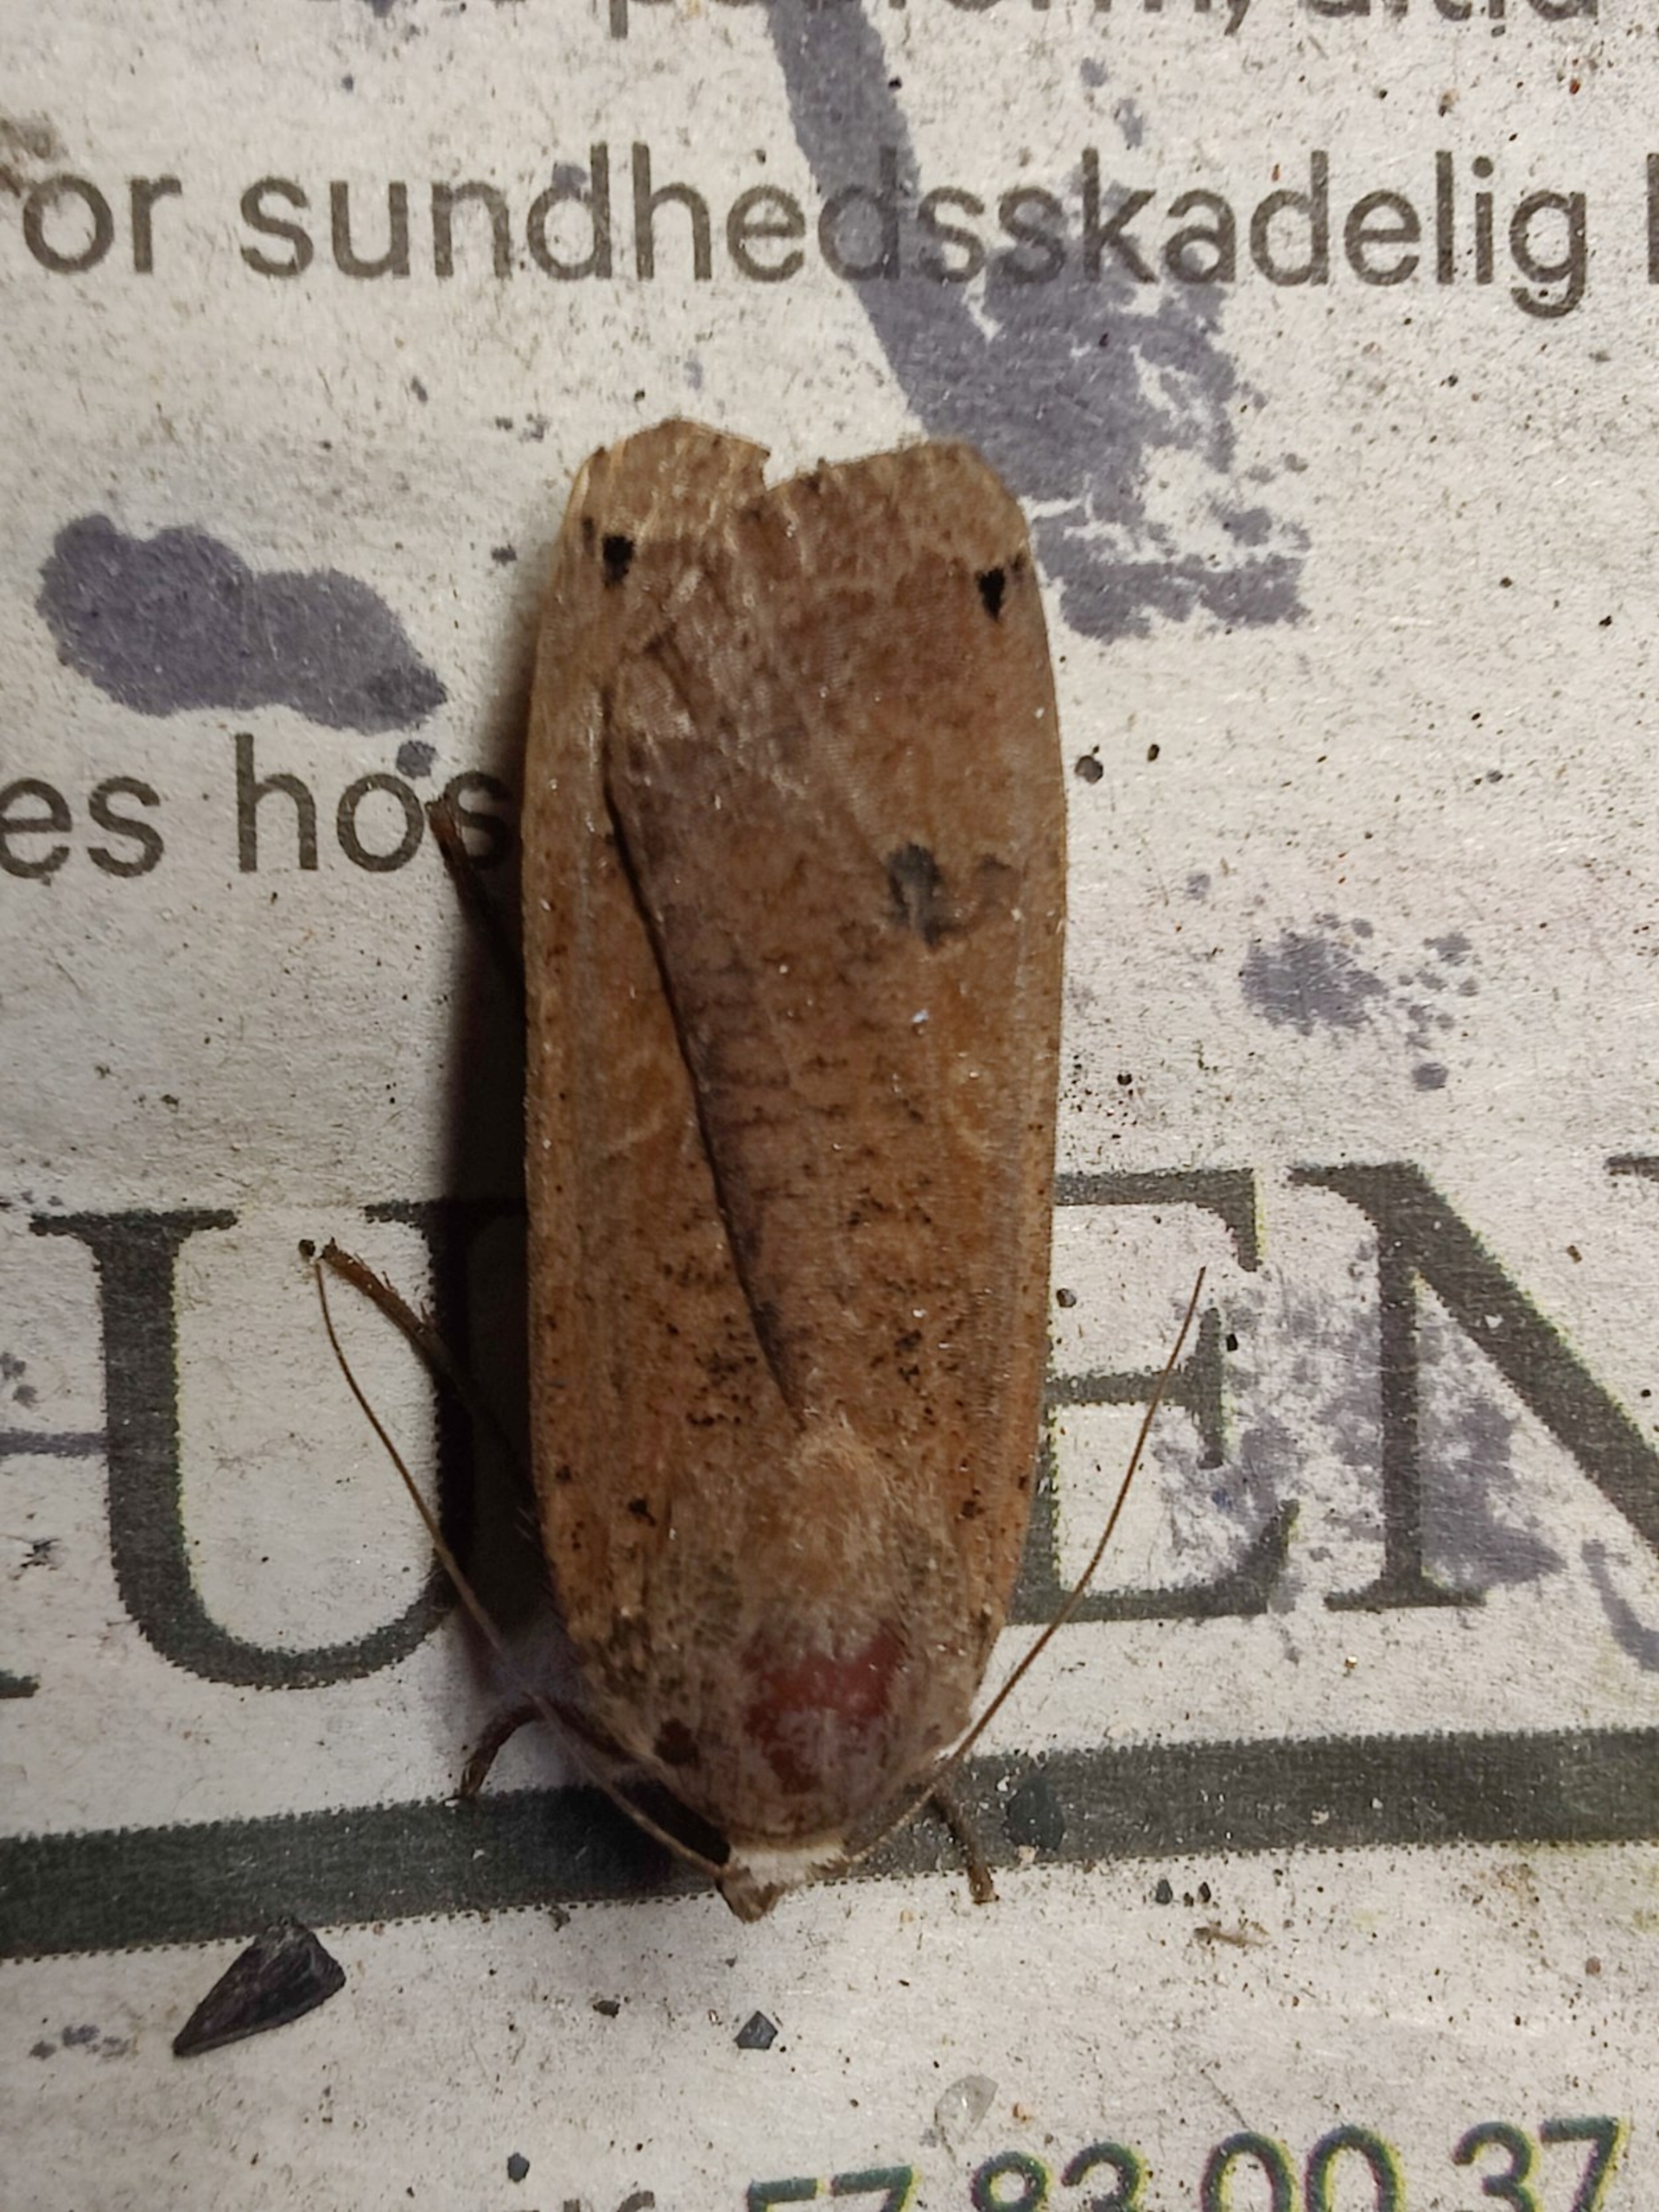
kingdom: Animalia
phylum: Arthropoda
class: Insecta
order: Lepidoptera
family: Noctuidae
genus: Noctua
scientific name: Noctua pronuba
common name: Stor smutugle
